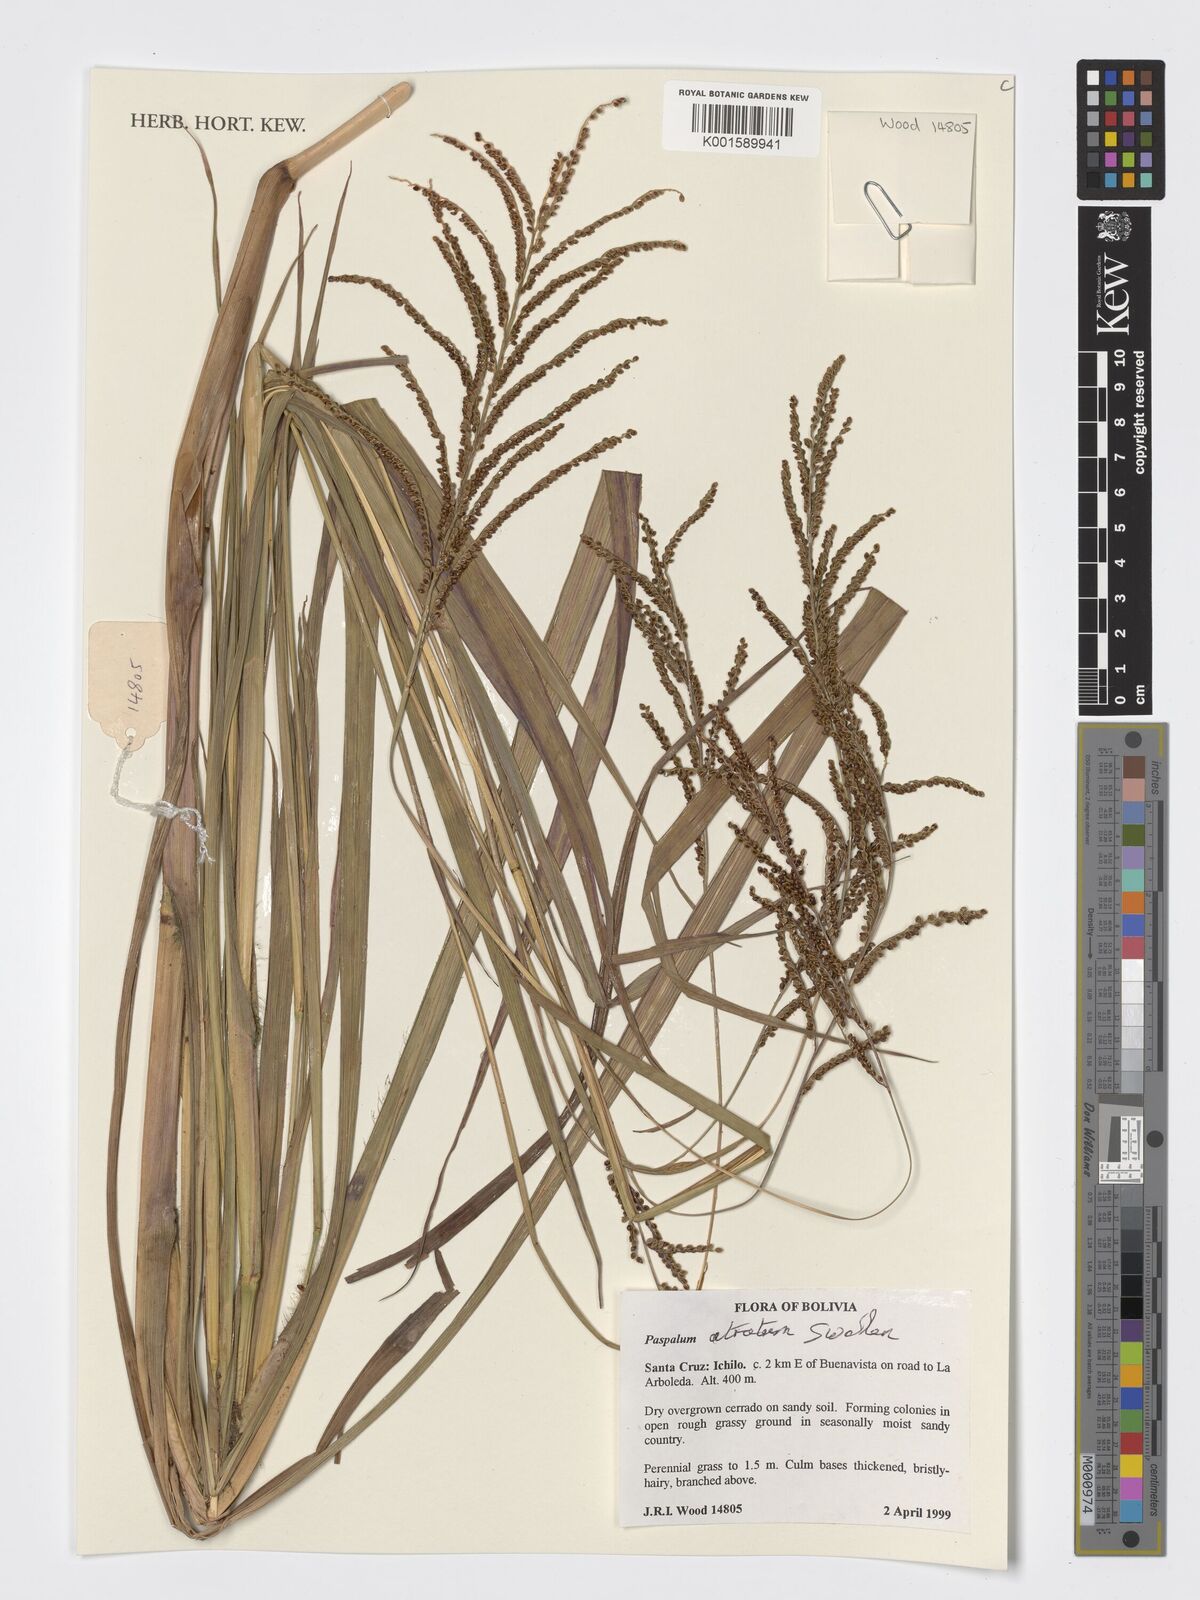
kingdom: Plantae
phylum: Tracheophyta
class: Liliopsida
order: Poales
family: Poaceae
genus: Paspalum
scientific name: Paspalum atratum
